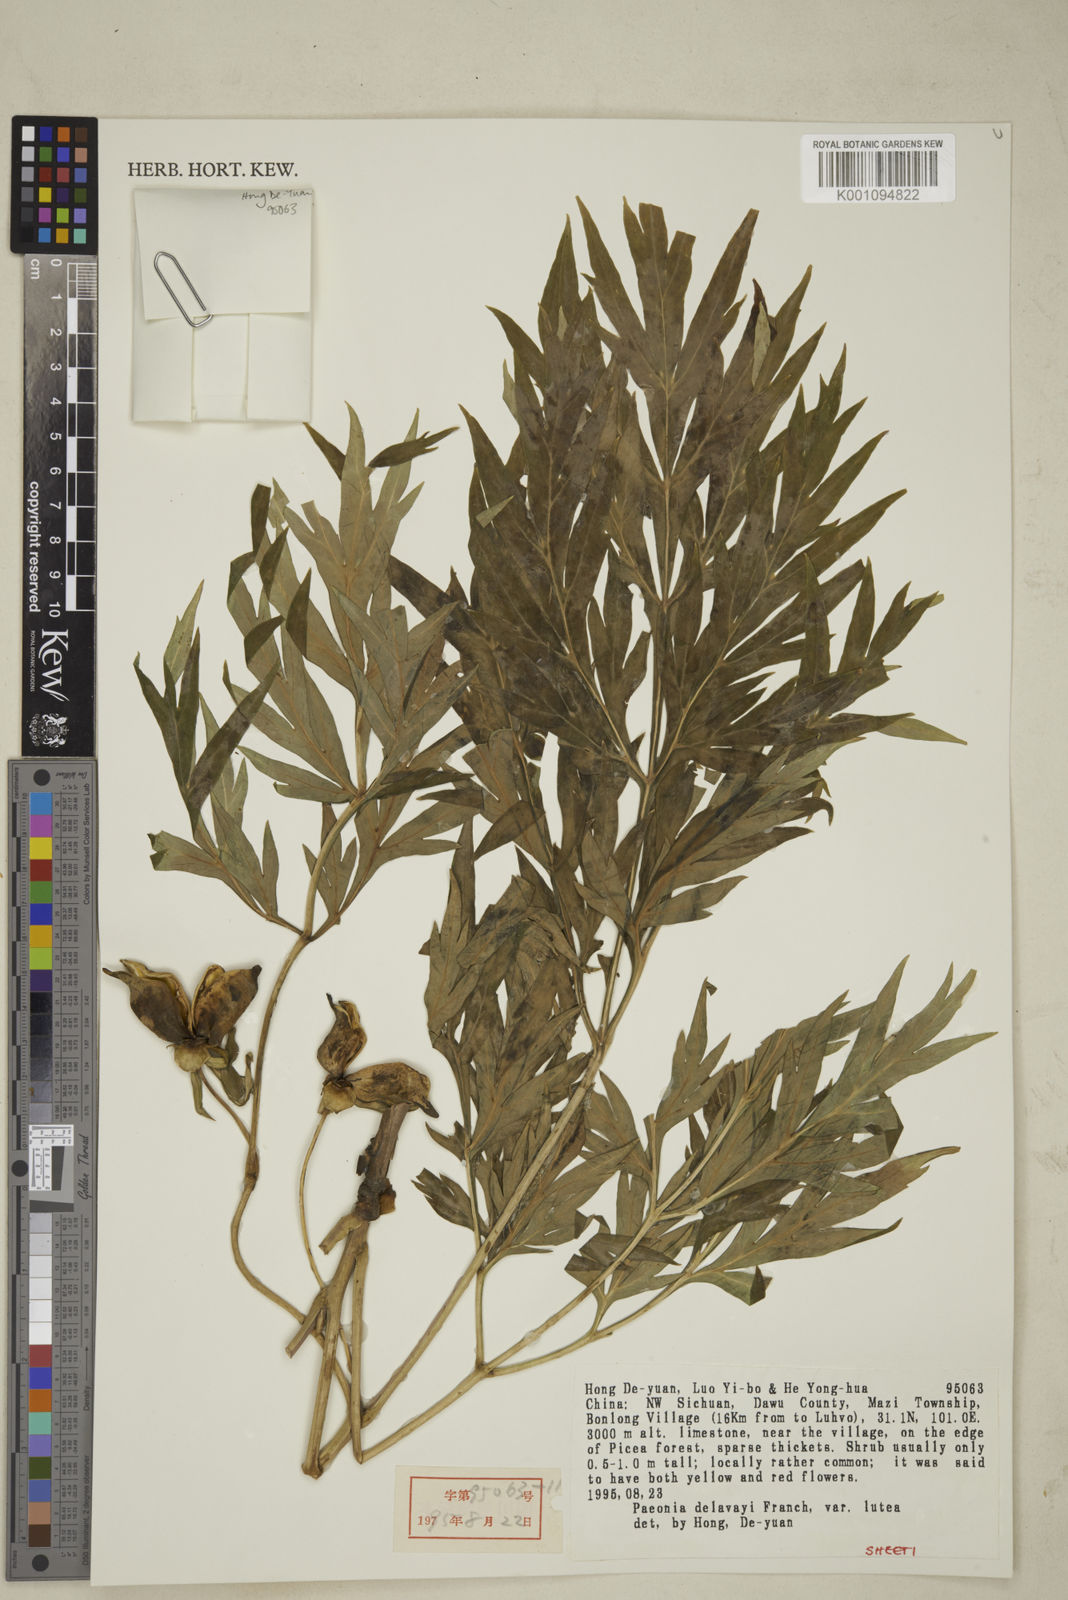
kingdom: Plantae
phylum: Tracheophyta
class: Magnoliopsida
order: Saxifragales
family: Paeoniaceae
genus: Paeonia
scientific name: Paeonia delavayi
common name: Dian mu dan
